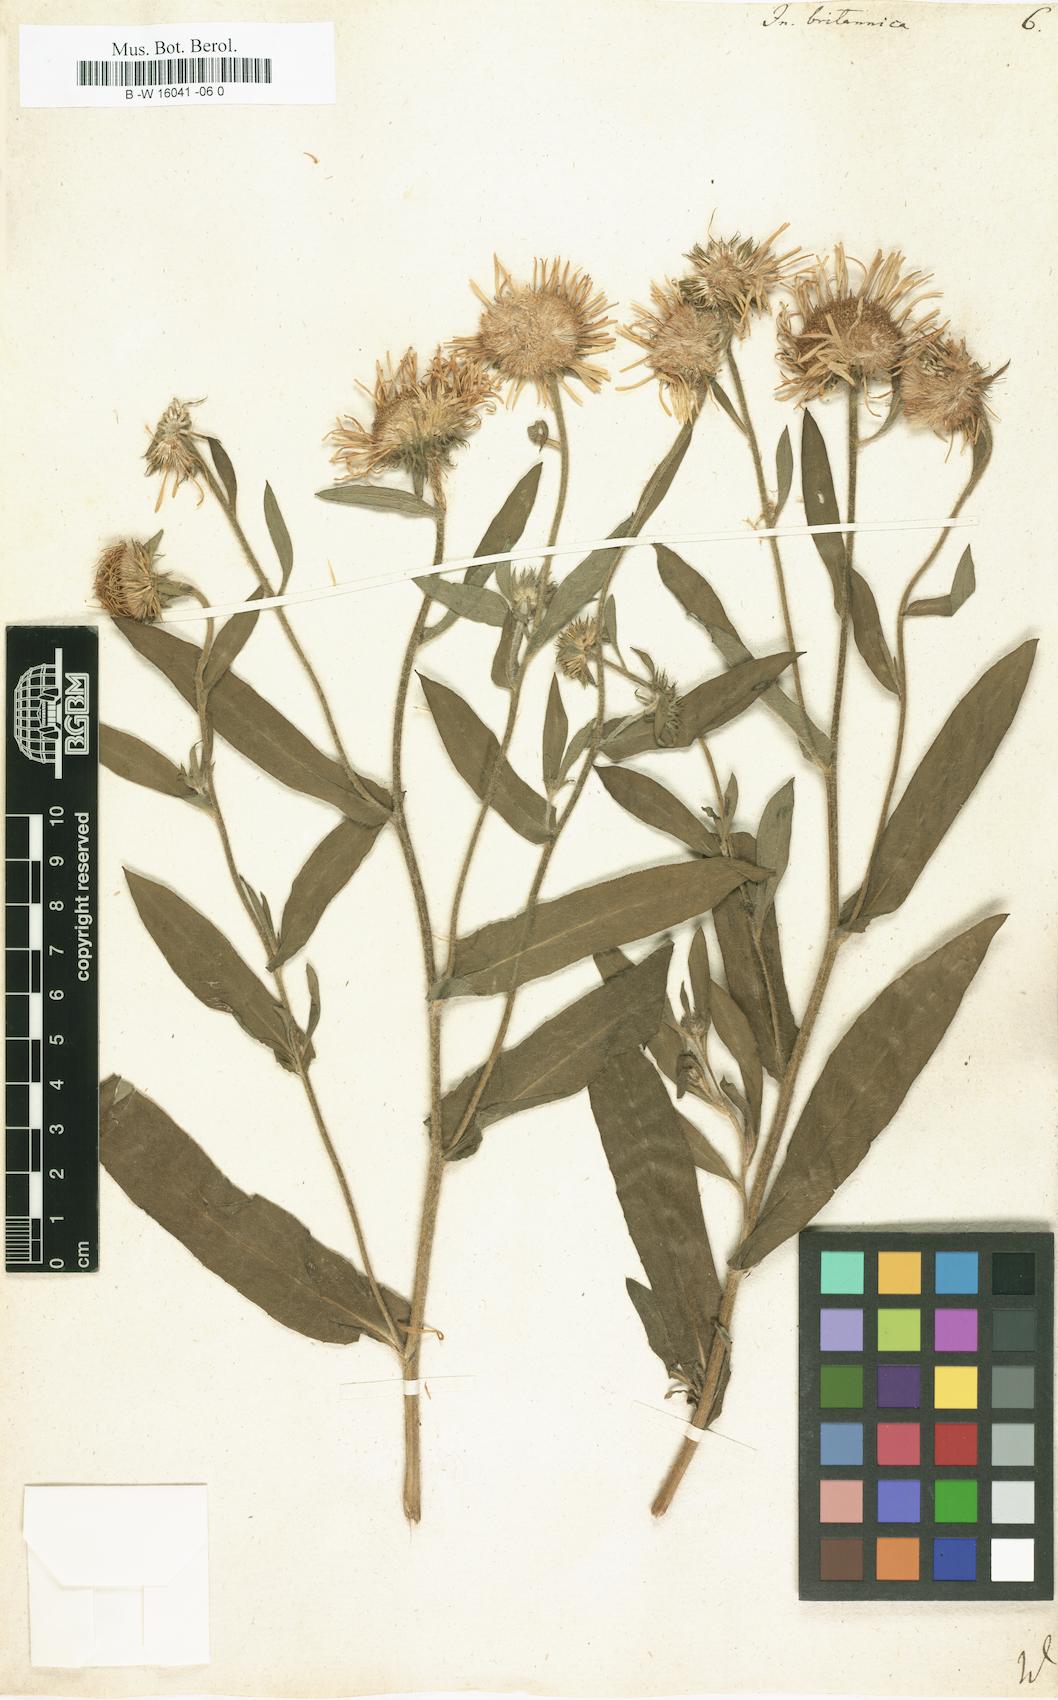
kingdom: Plantae
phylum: Tracheophyta
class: Magnoliopsida
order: Asterales
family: Asteraceae
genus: Inula
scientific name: Inula britannica
